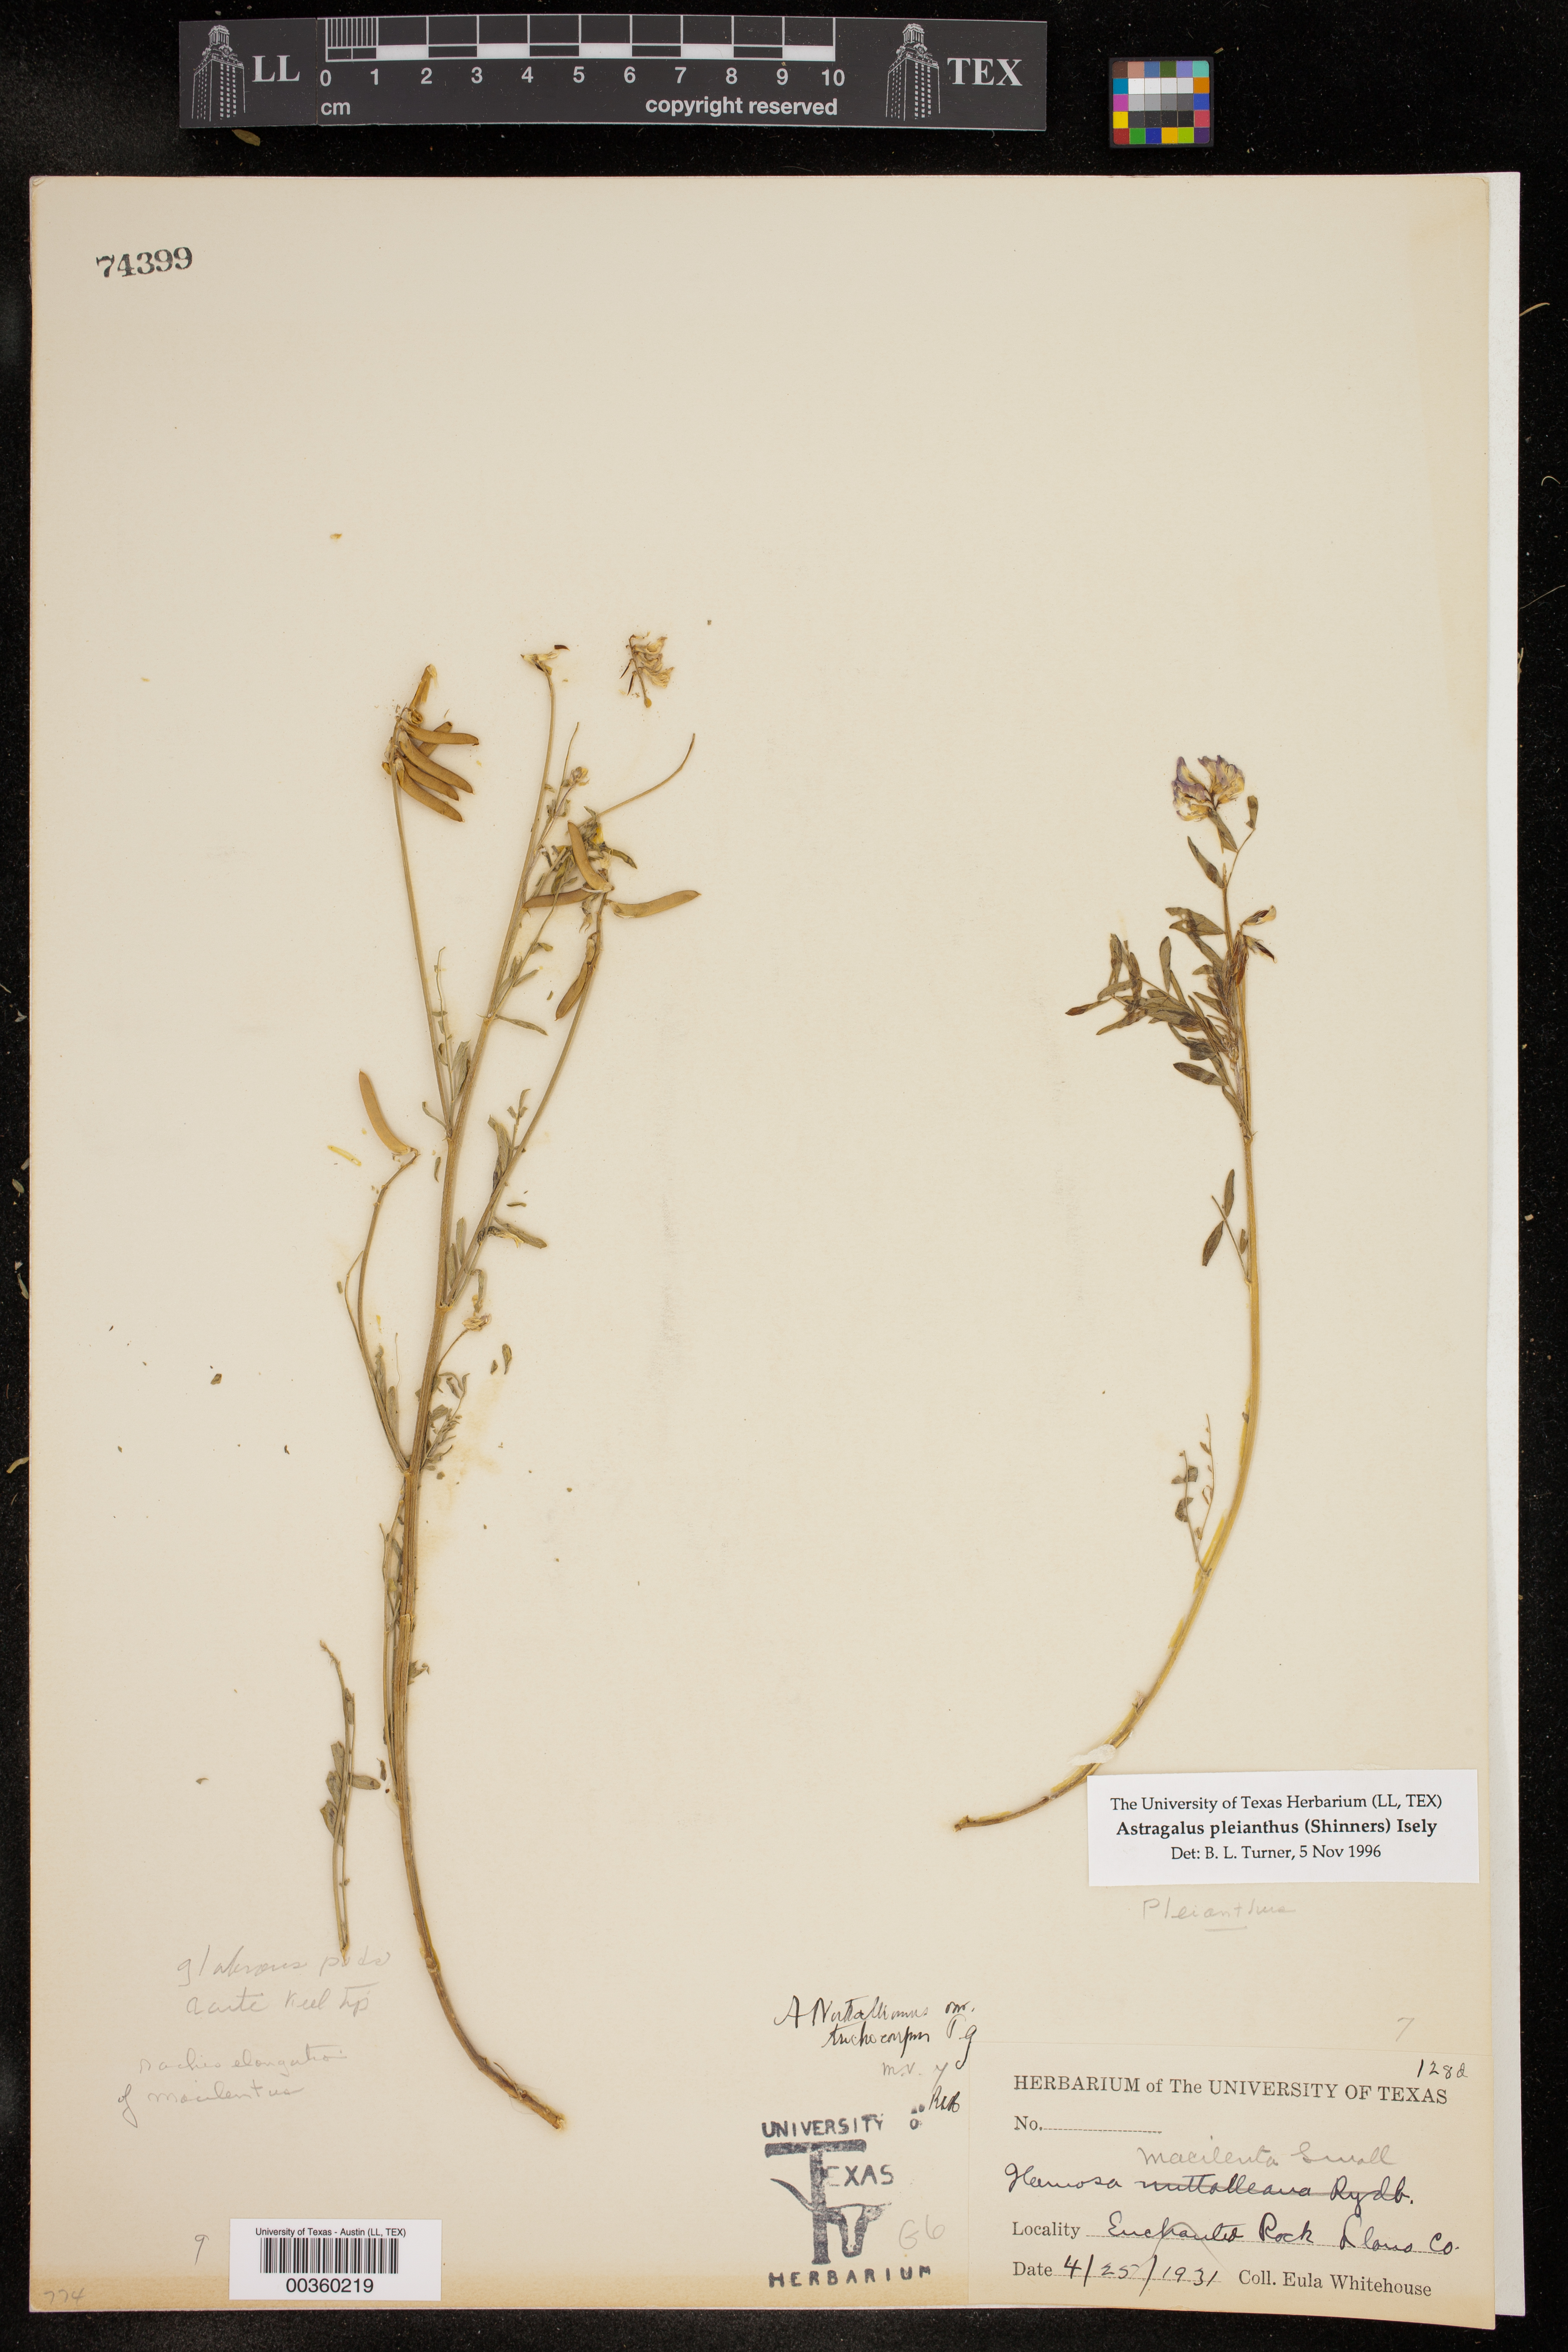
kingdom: Plantae
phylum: Tracheophyta
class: Magnoliopsida
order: Fabales
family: Fabaceae
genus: Astragalus
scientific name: Astragalus pleianthus
